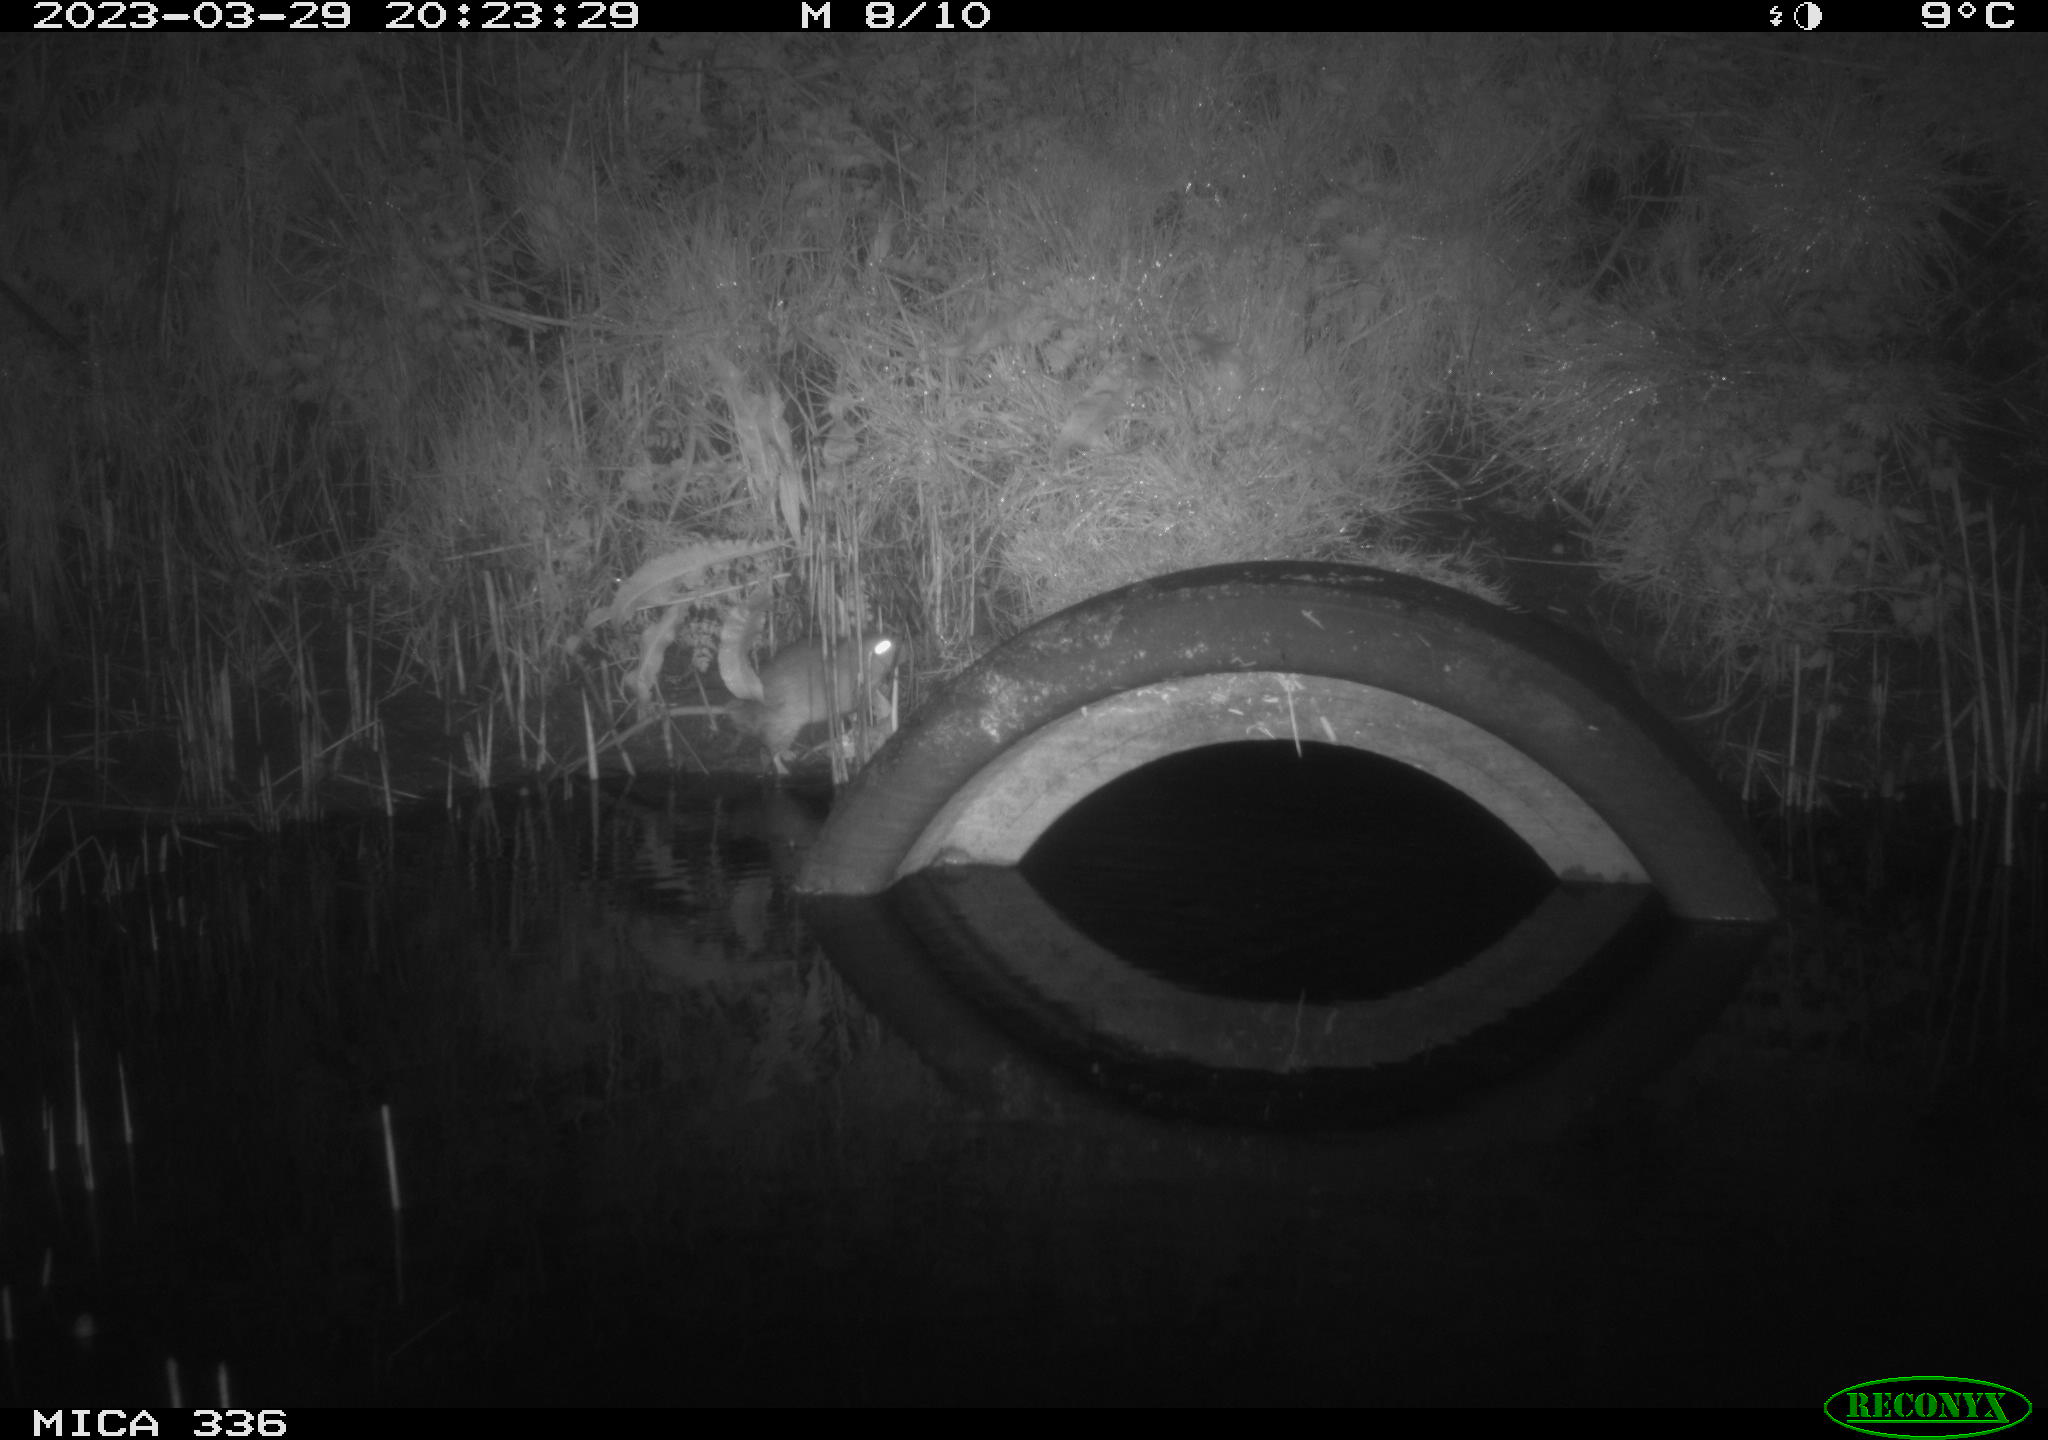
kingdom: Animalia
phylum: Chordata
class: Mammalia
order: Rodentia
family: Muridae
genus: Rattus
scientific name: Rattus norvegicus
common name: Brown rat
